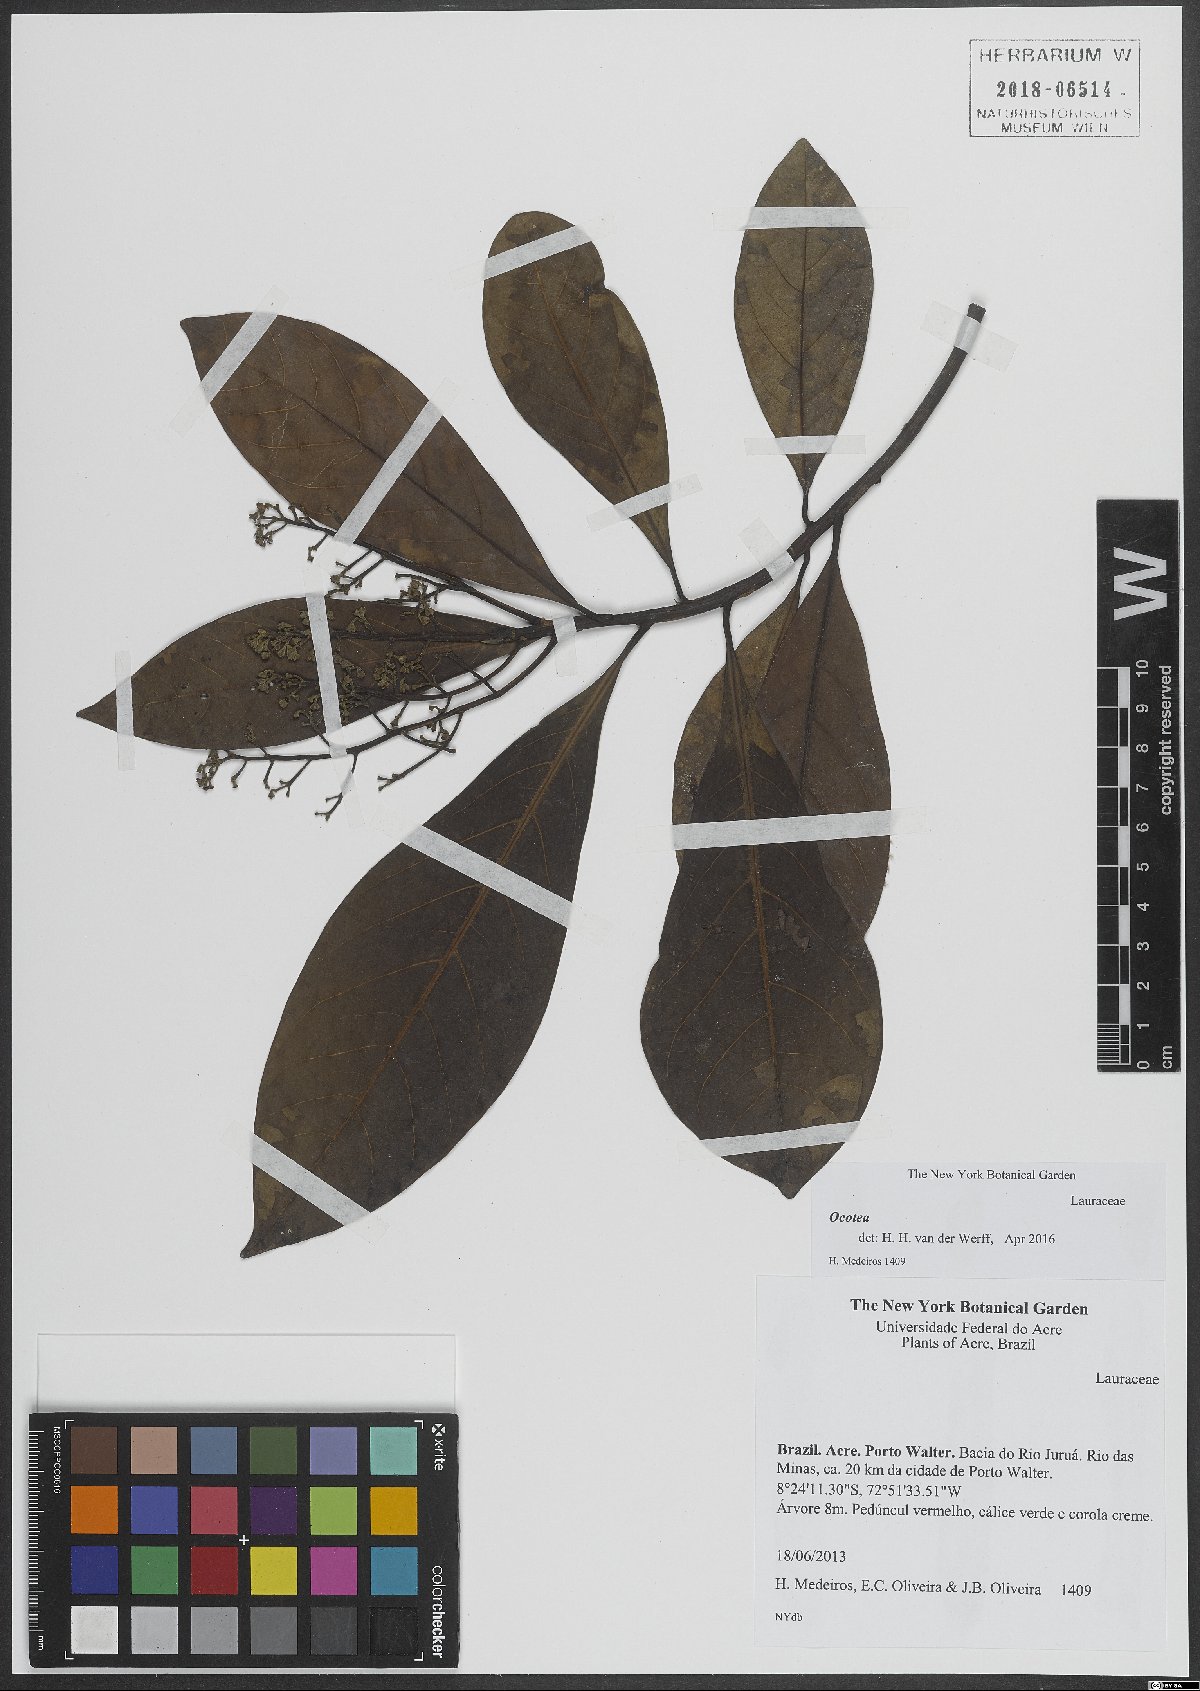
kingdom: Plantae
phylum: Tracheophyta
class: Magnoliopsida
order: Laurales
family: Lauraceae
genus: Ocotea
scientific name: Ocotea
